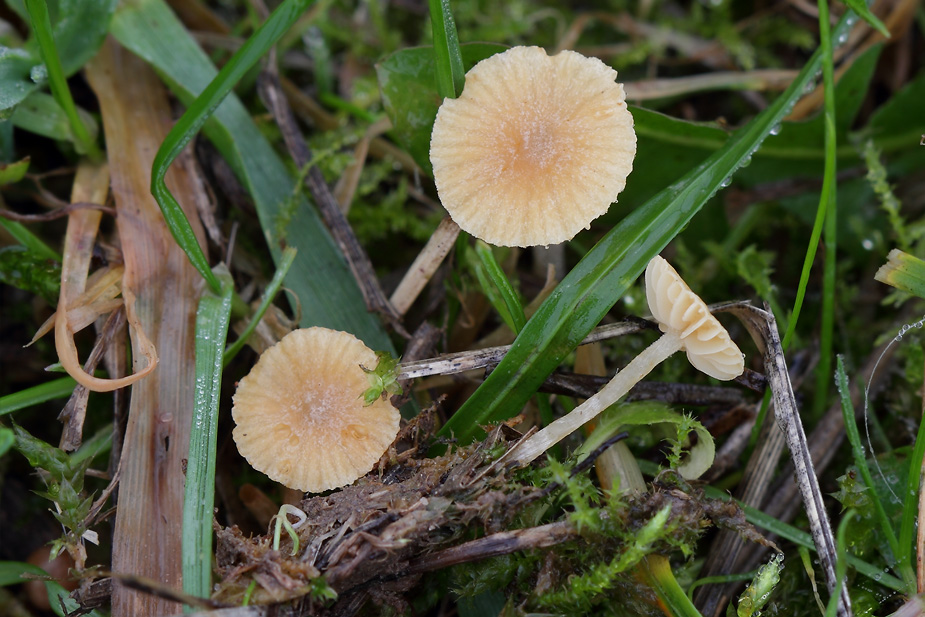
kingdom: Fungi
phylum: Basidiomycota
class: Agaricomycetes
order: Agaricales
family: Hymenogastraceae
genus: Galerina
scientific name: Galerina graminea
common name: plæne-hjelmhat
